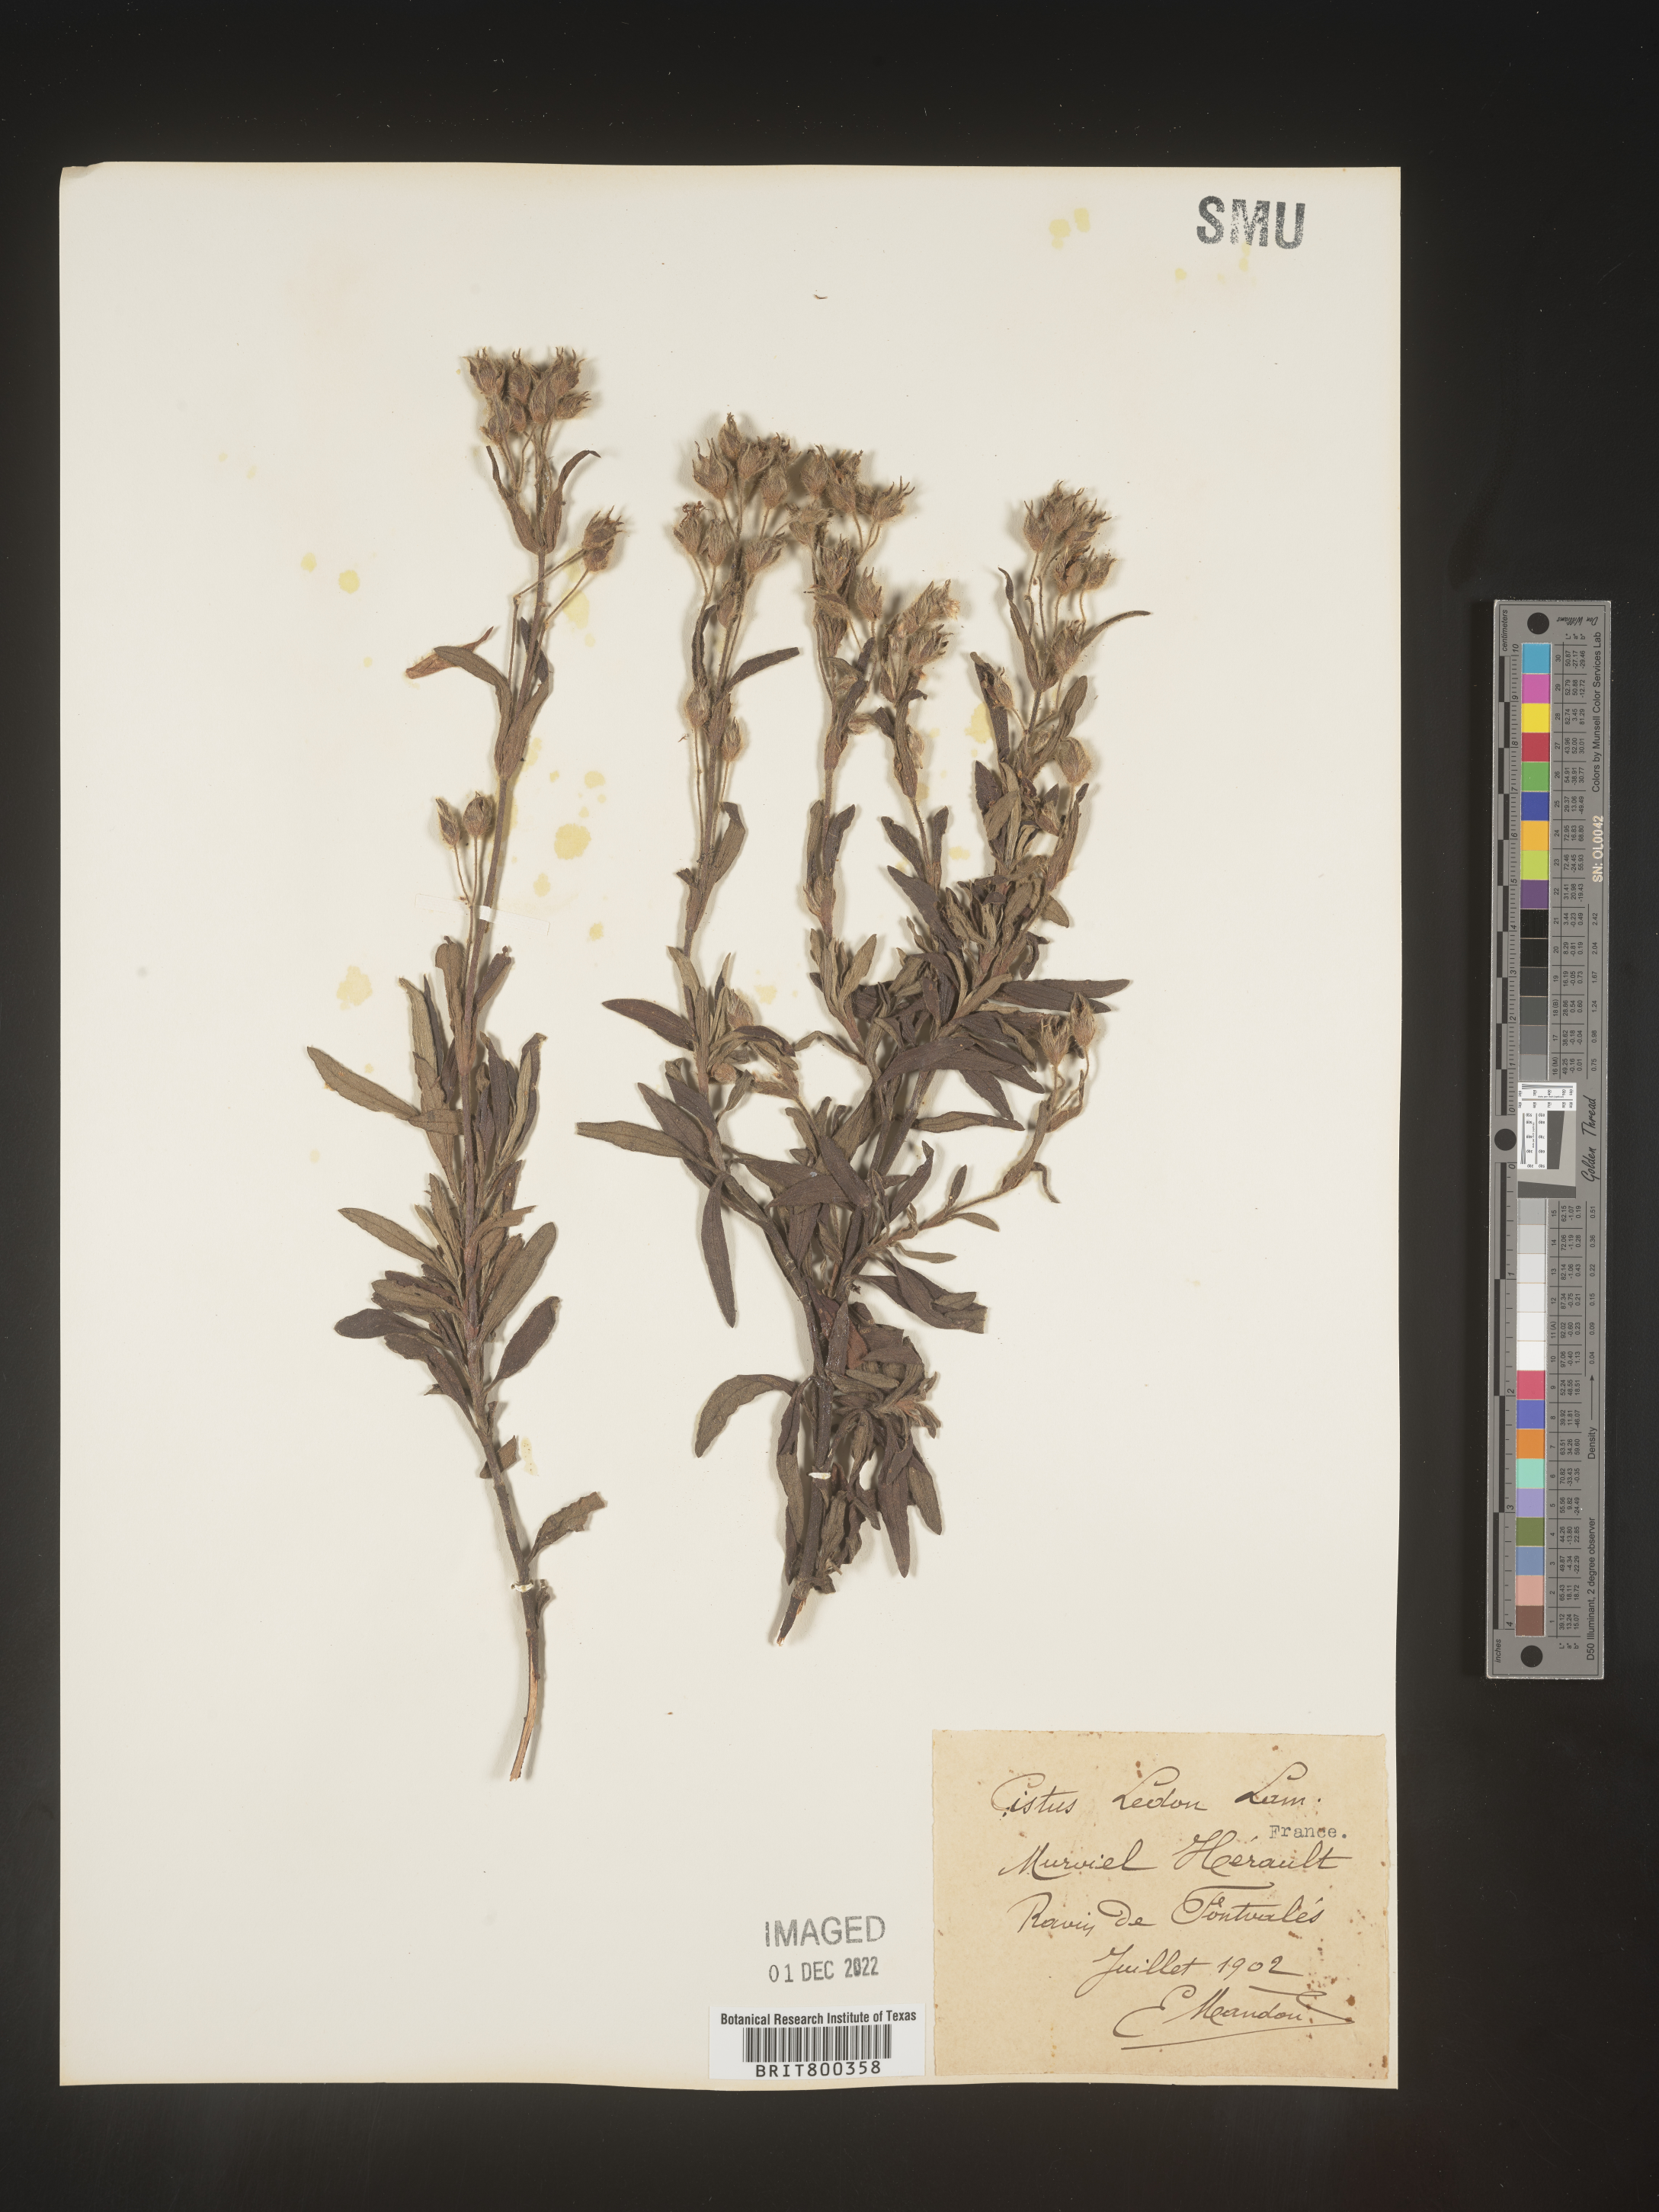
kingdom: Plantae
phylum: Tracheophyta
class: Magnoliopsida
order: Malvales
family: Cistaceae
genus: Cistus
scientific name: Cistus
